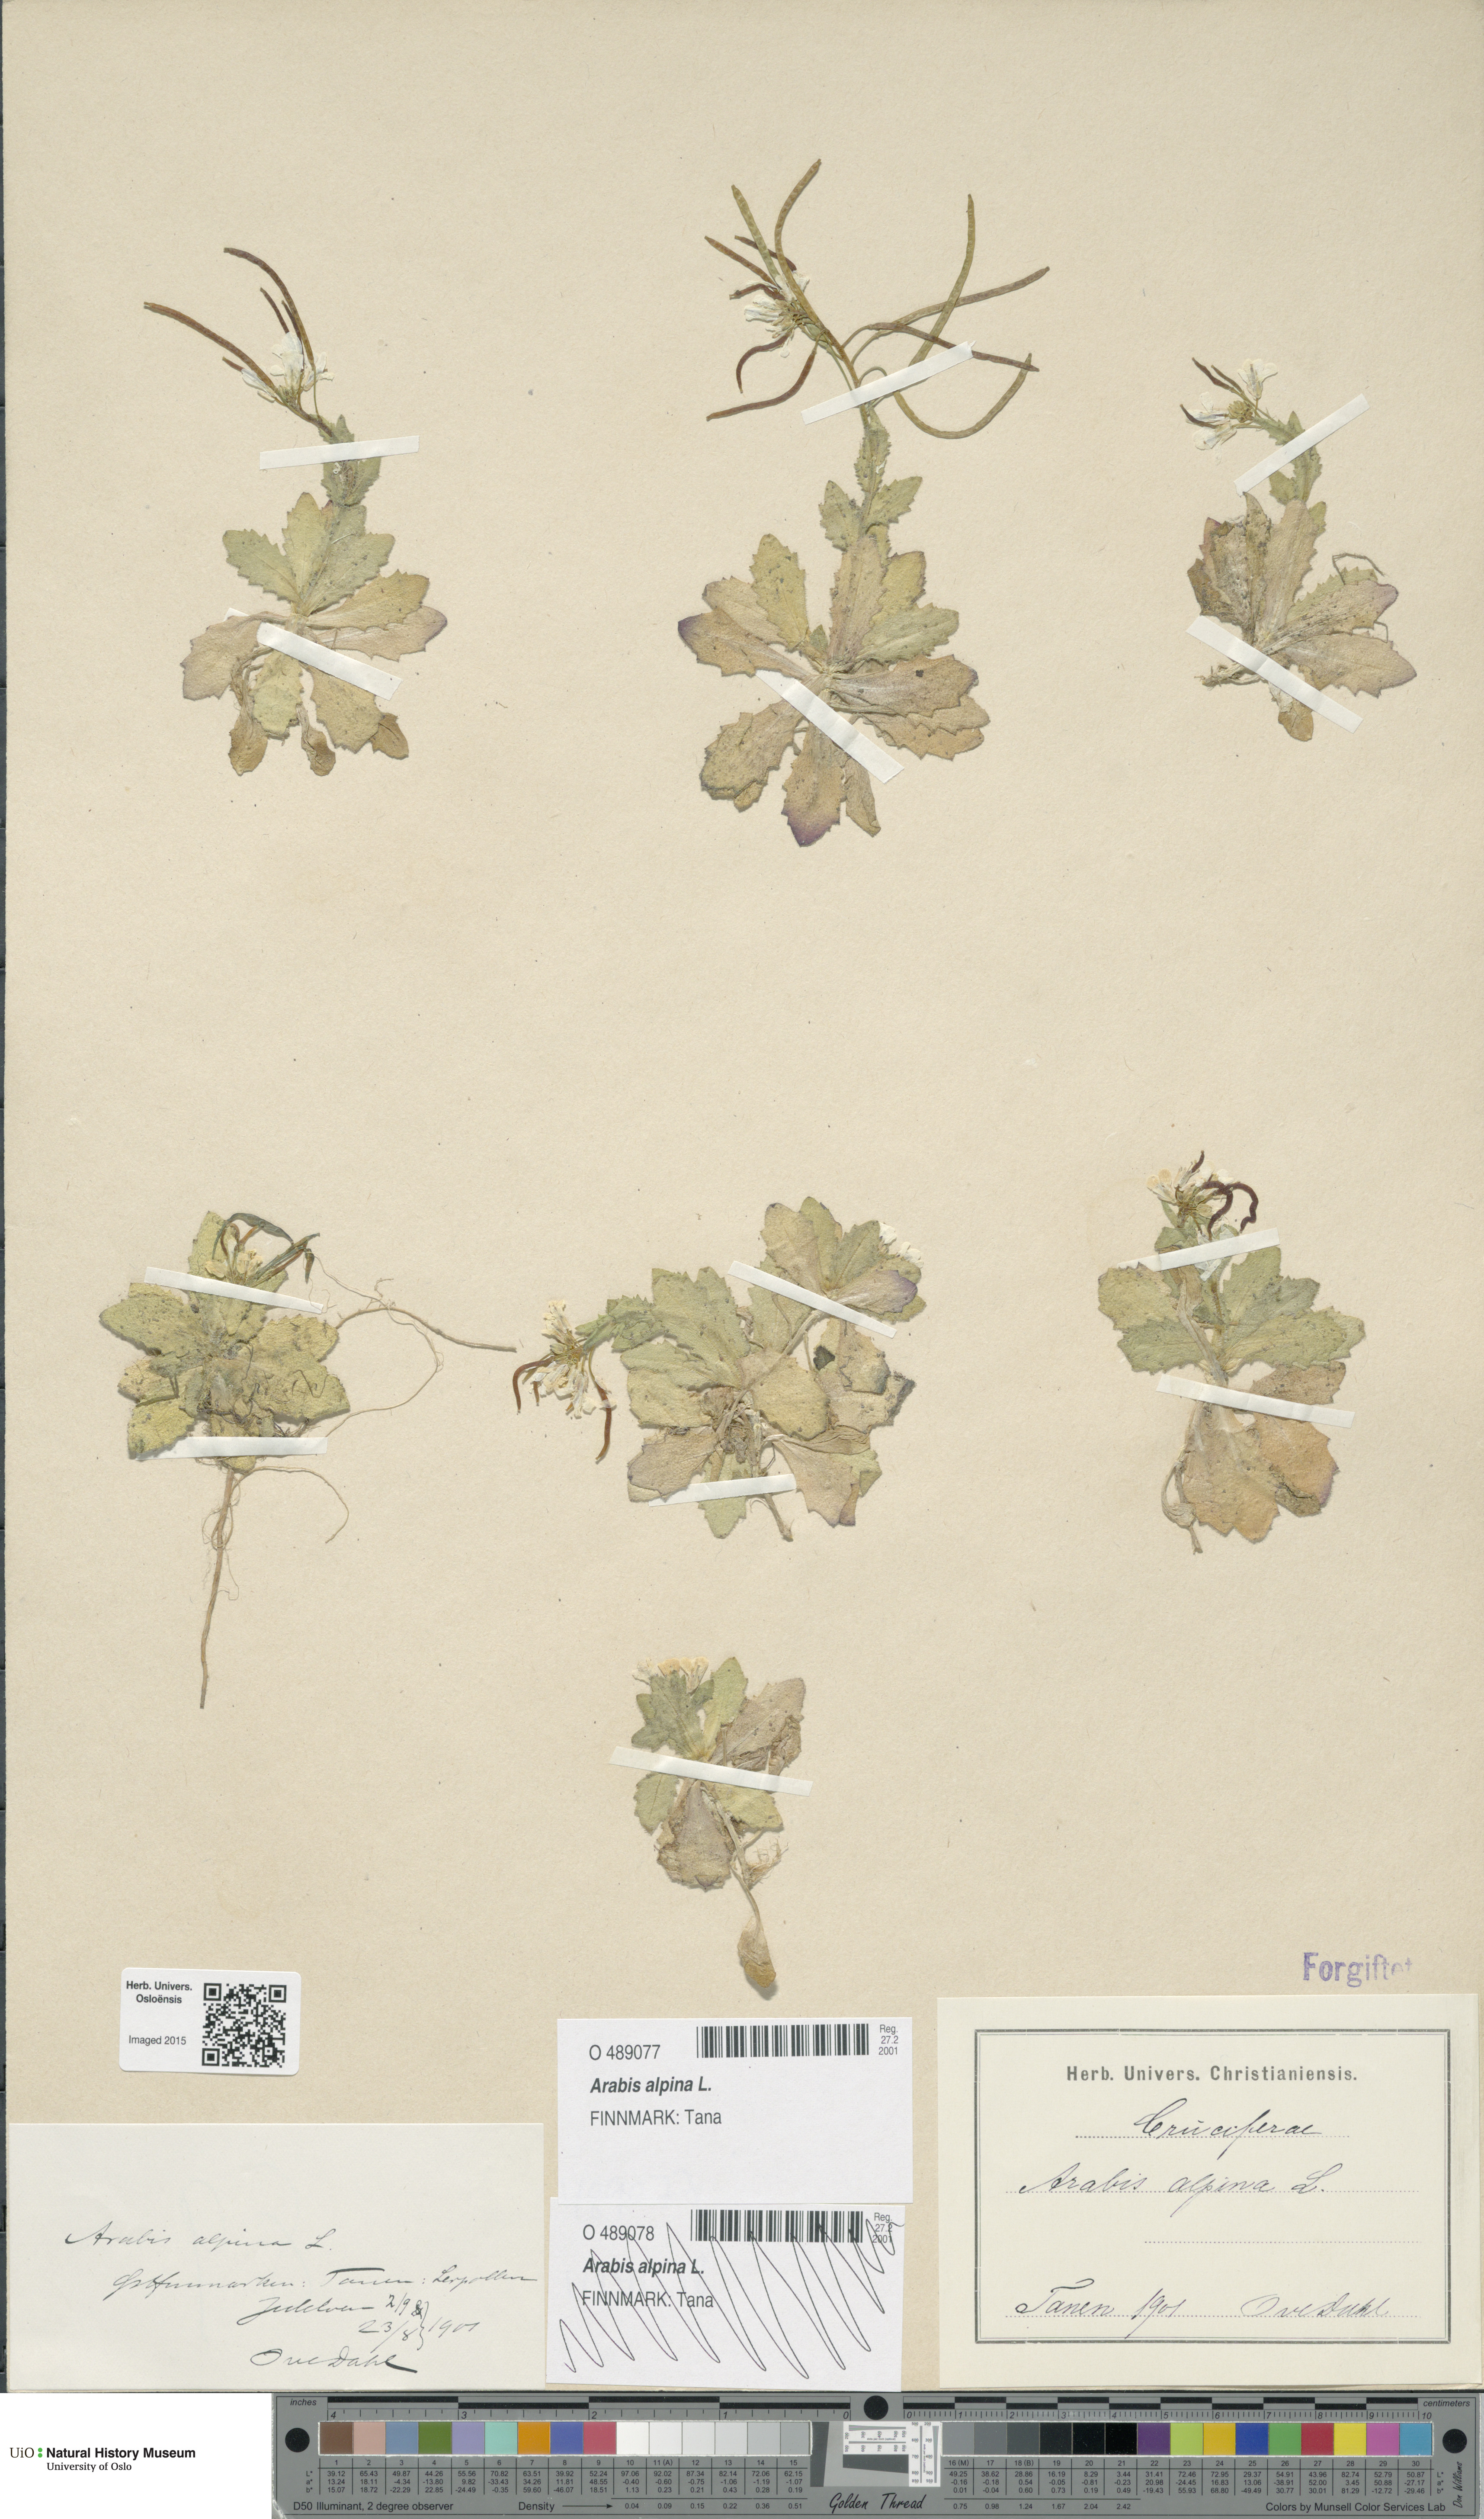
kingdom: Plantae
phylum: Tracheophyta
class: Magnoliopsida
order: Brassicales
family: Brassicaceae
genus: Arabis
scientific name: Arabis alpina
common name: Alpine rock-cress
